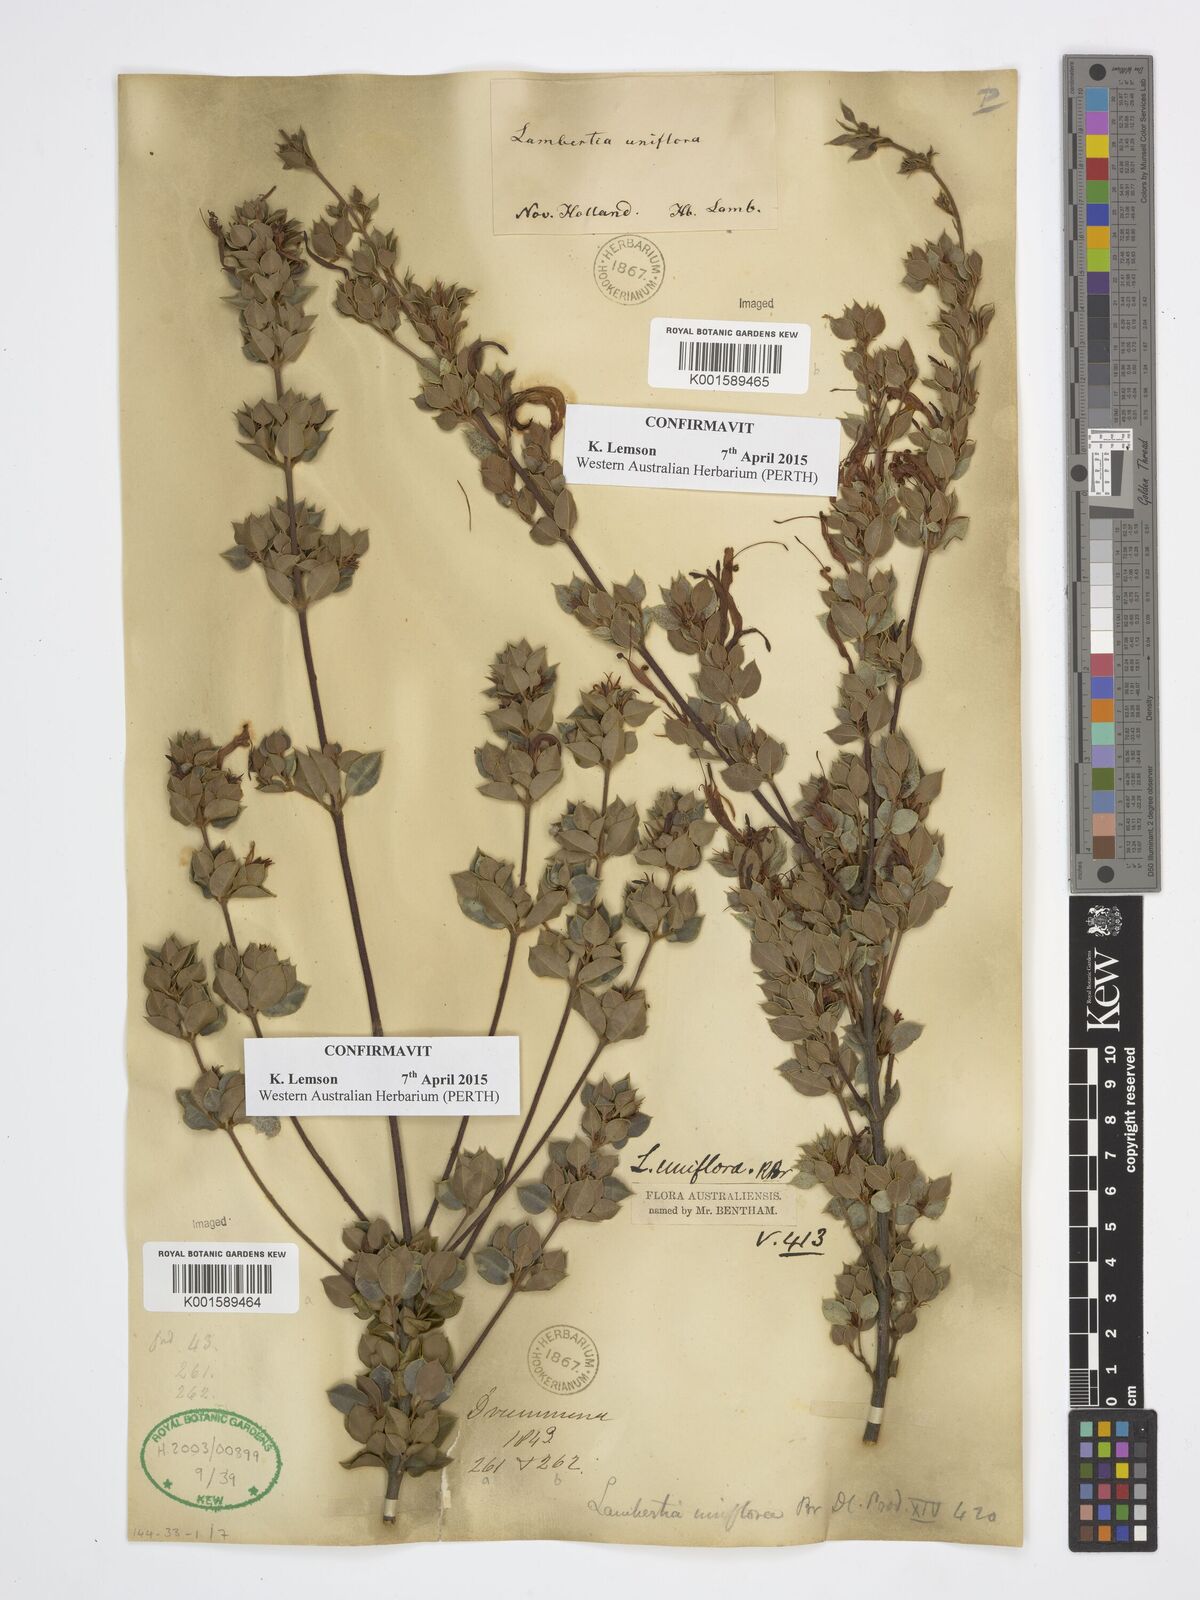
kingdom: Plantae
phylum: Tracheophyta
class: Magnoliopsida
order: Proteales
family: Proteaceae
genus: Lambertia
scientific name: Lambertia uniflora
